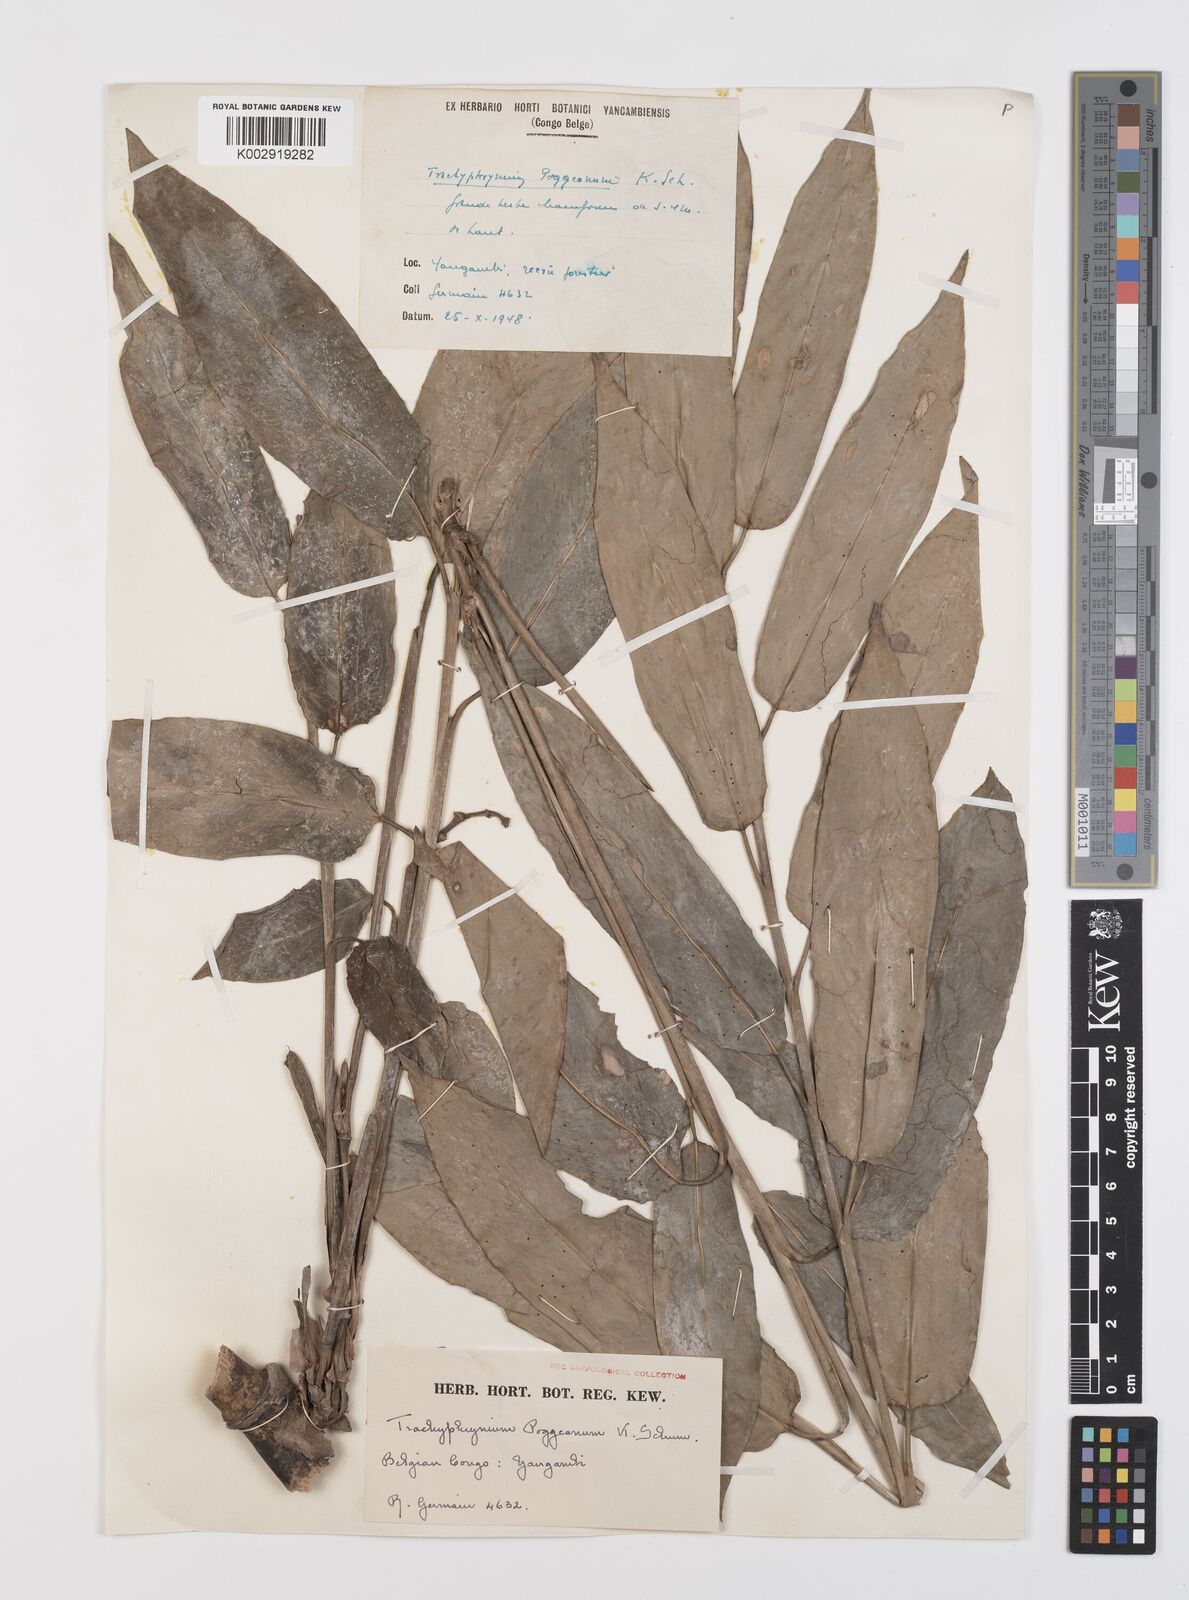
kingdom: Plantae
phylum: Tracheophyta
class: Liliopsida
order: Zingiberales
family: Marantaceae
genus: Hypselodelphys
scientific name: Hypselodelphys poggeana
